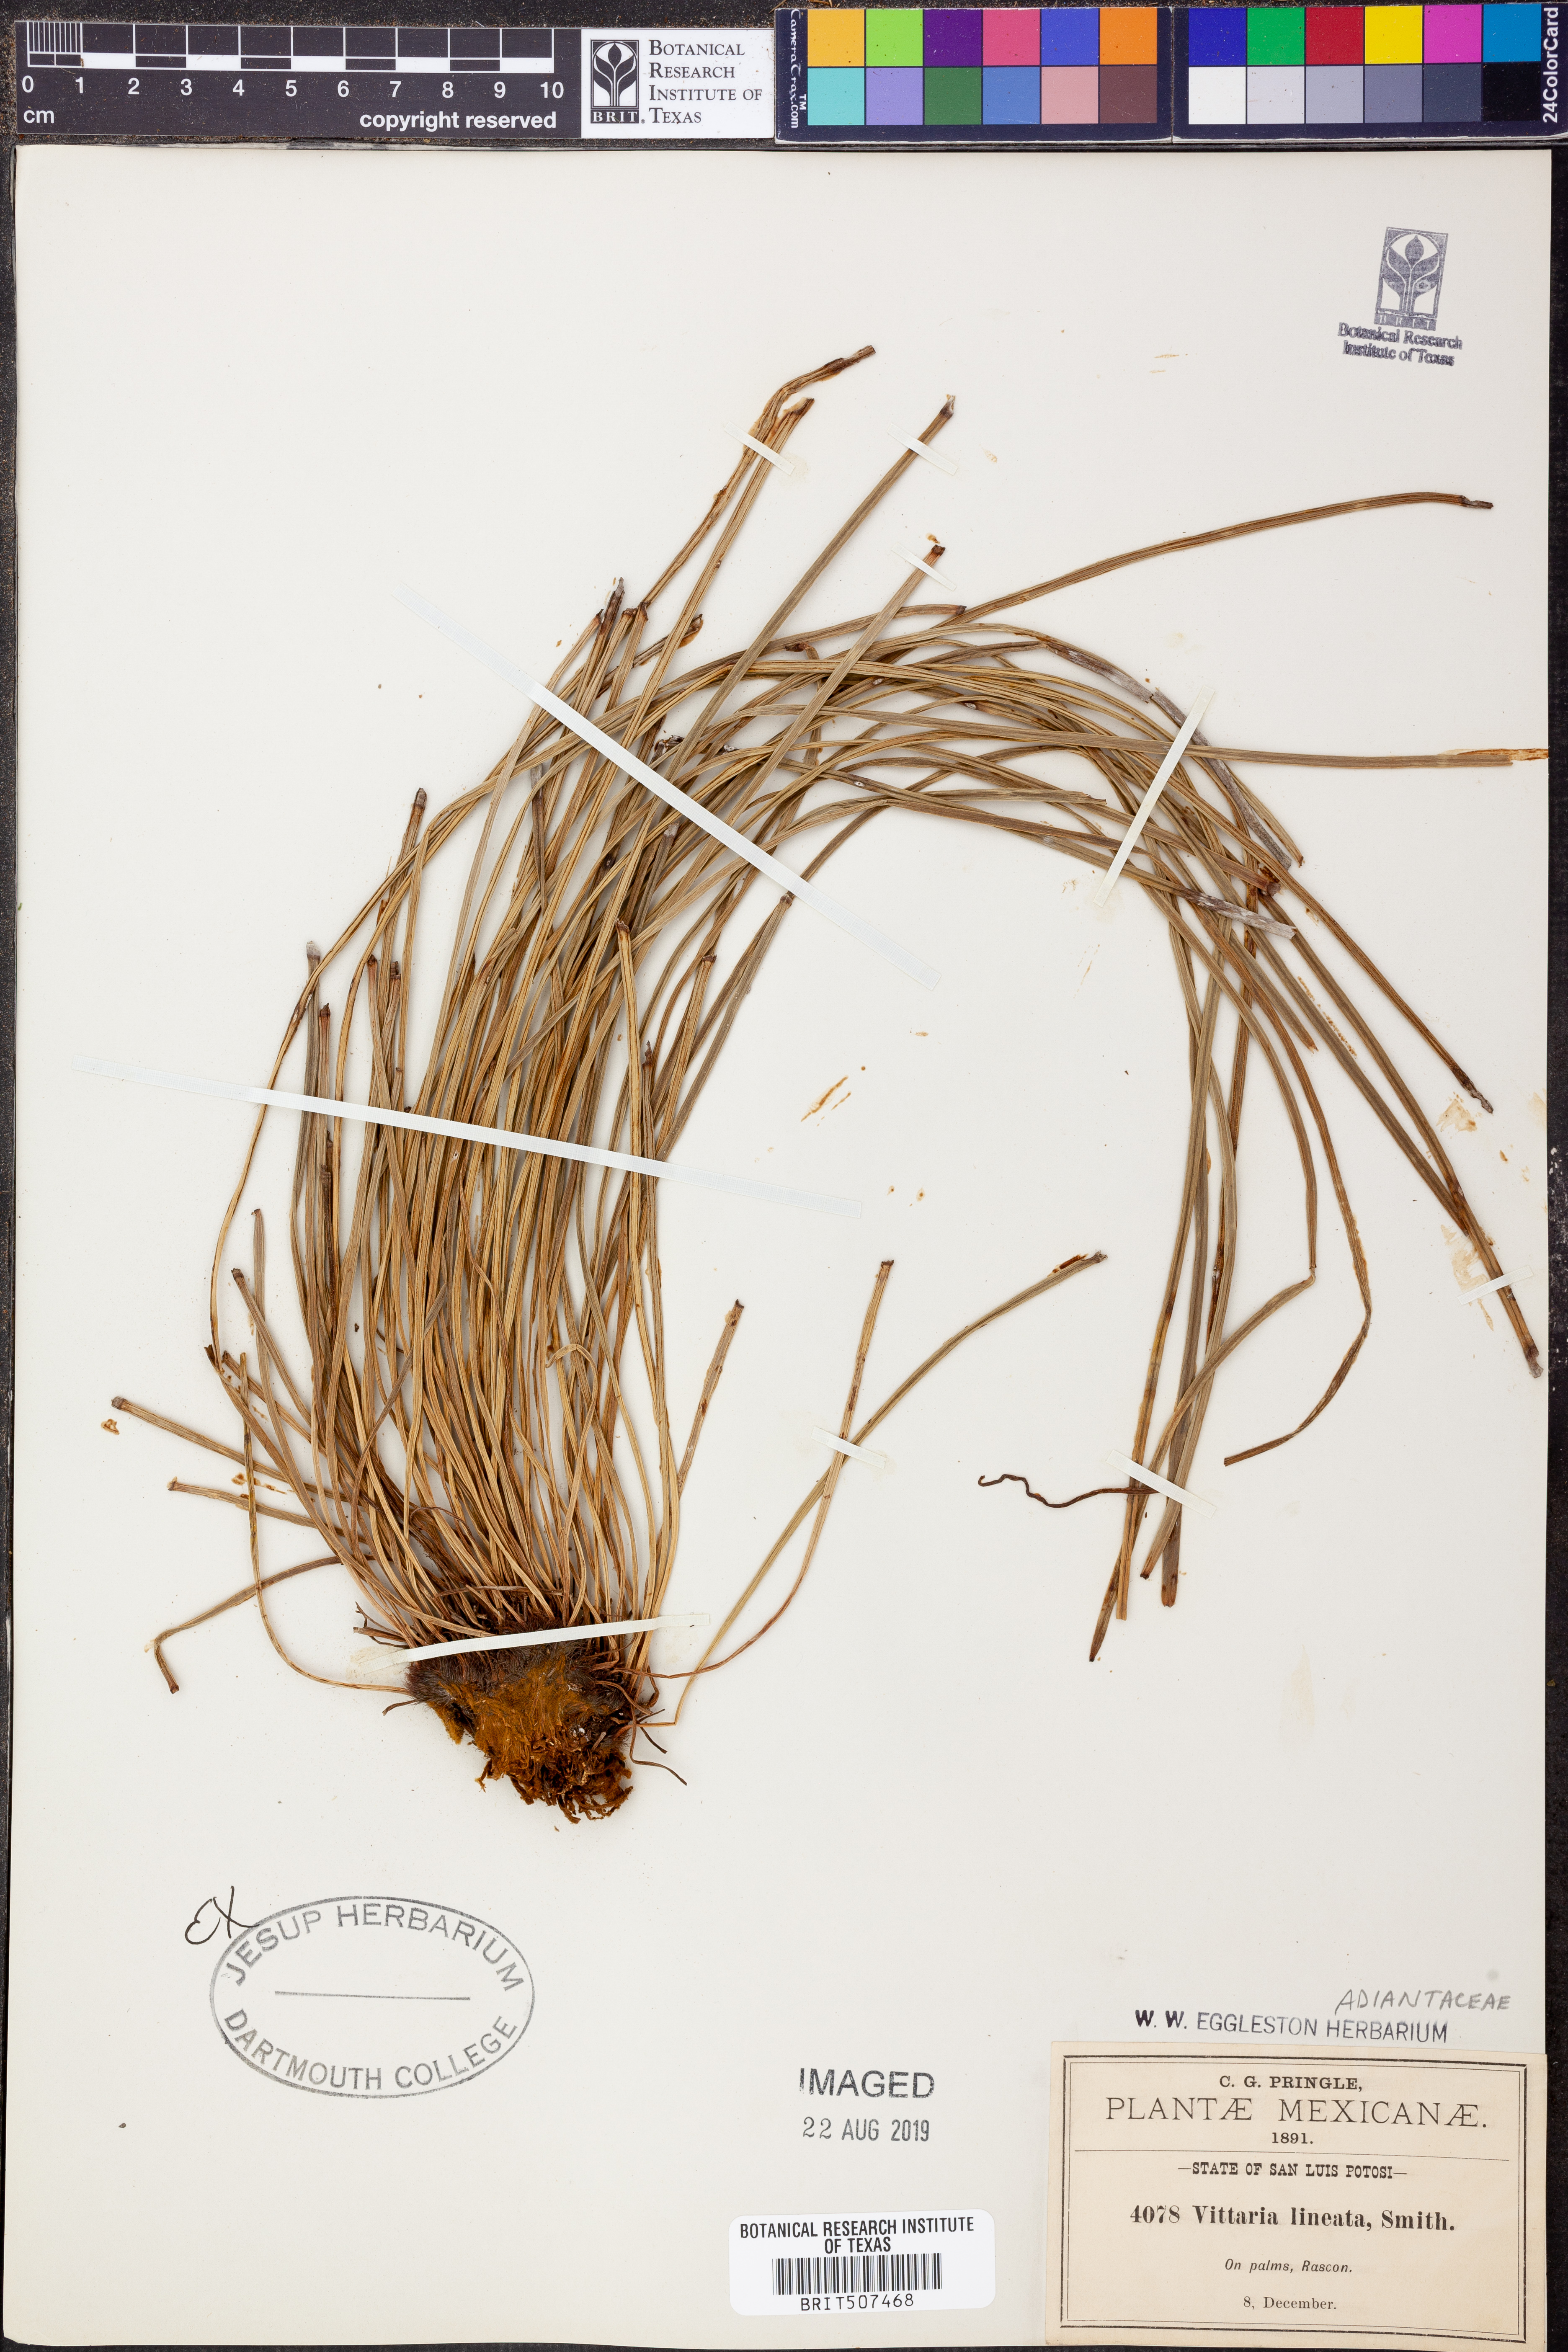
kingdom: Plantae
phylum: Tracheophyta
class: Polypodiopsida
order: Polypodiales
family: Pteridaceae
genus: Vittaria
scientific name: Vittaria lineata
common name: Shoestring fern
